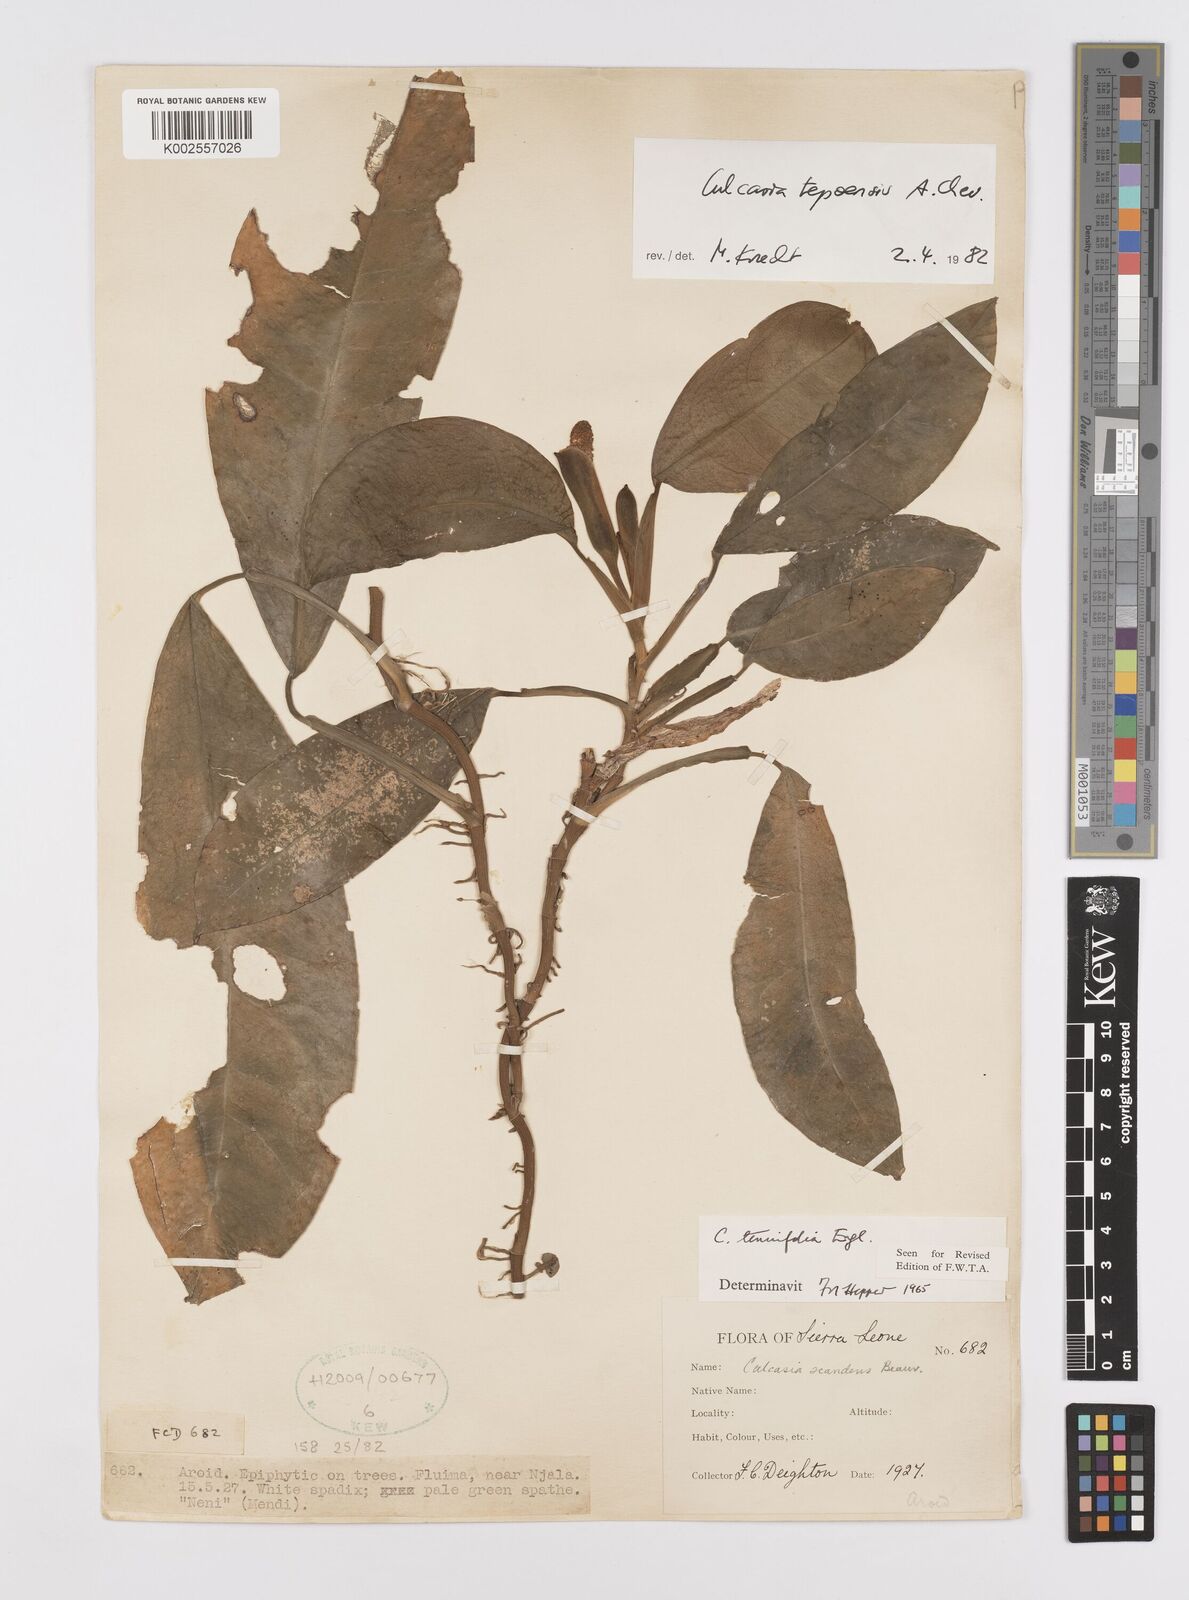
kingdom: Plantae
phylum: Tracheophyta
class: Liliopsida
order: Alismatales
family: Araceae
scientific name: Araceae
